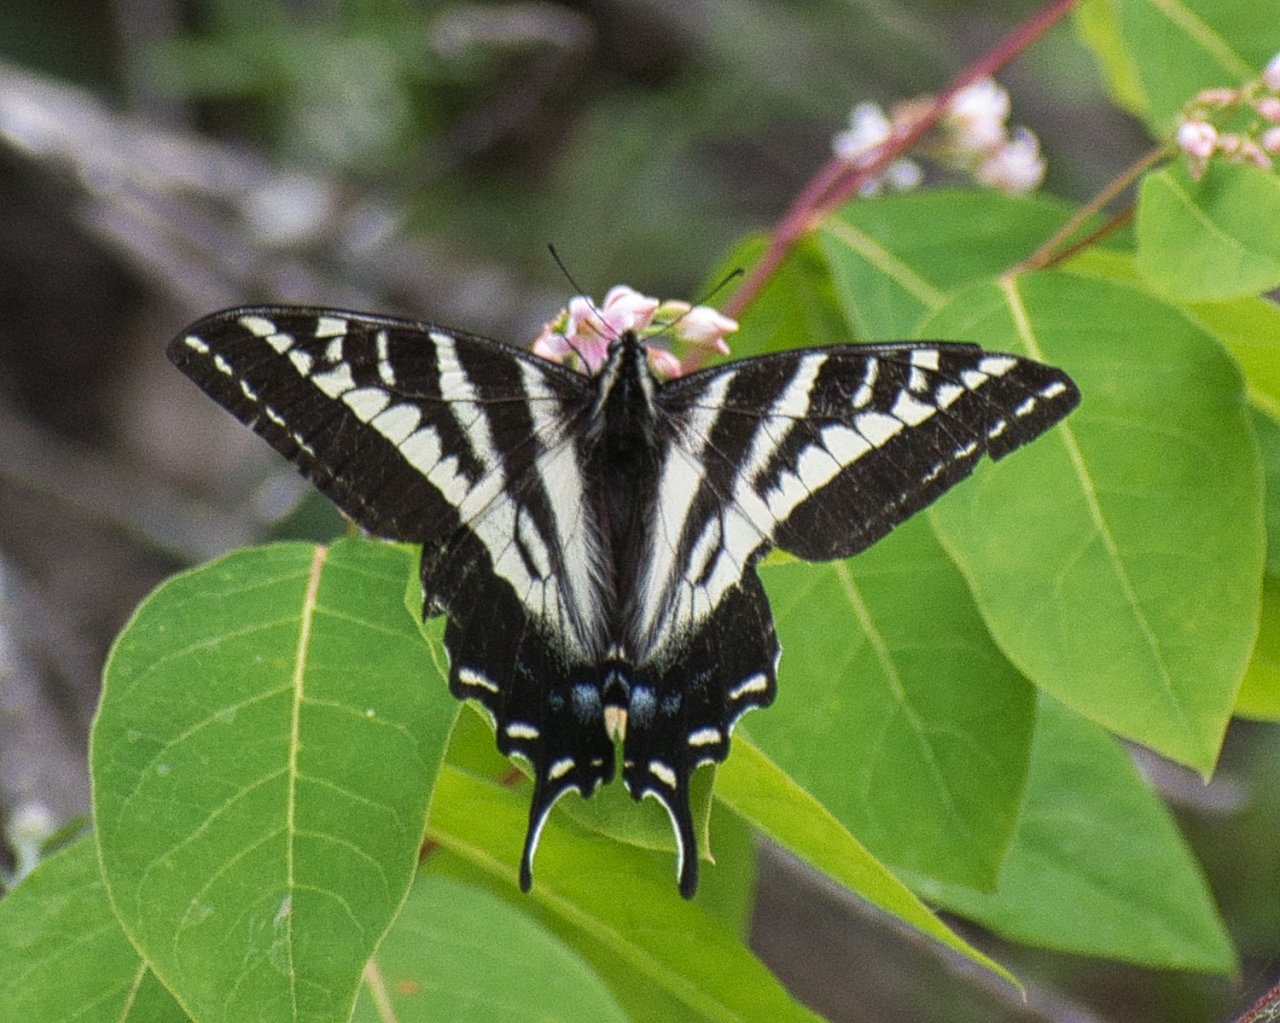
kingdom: Animalia
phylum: Arthropoda
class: Insecta
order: Lepidoptera
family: Papilionidae
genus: Pterourus
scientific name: Pterourus eurymedon
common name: Pale Swallowtail
